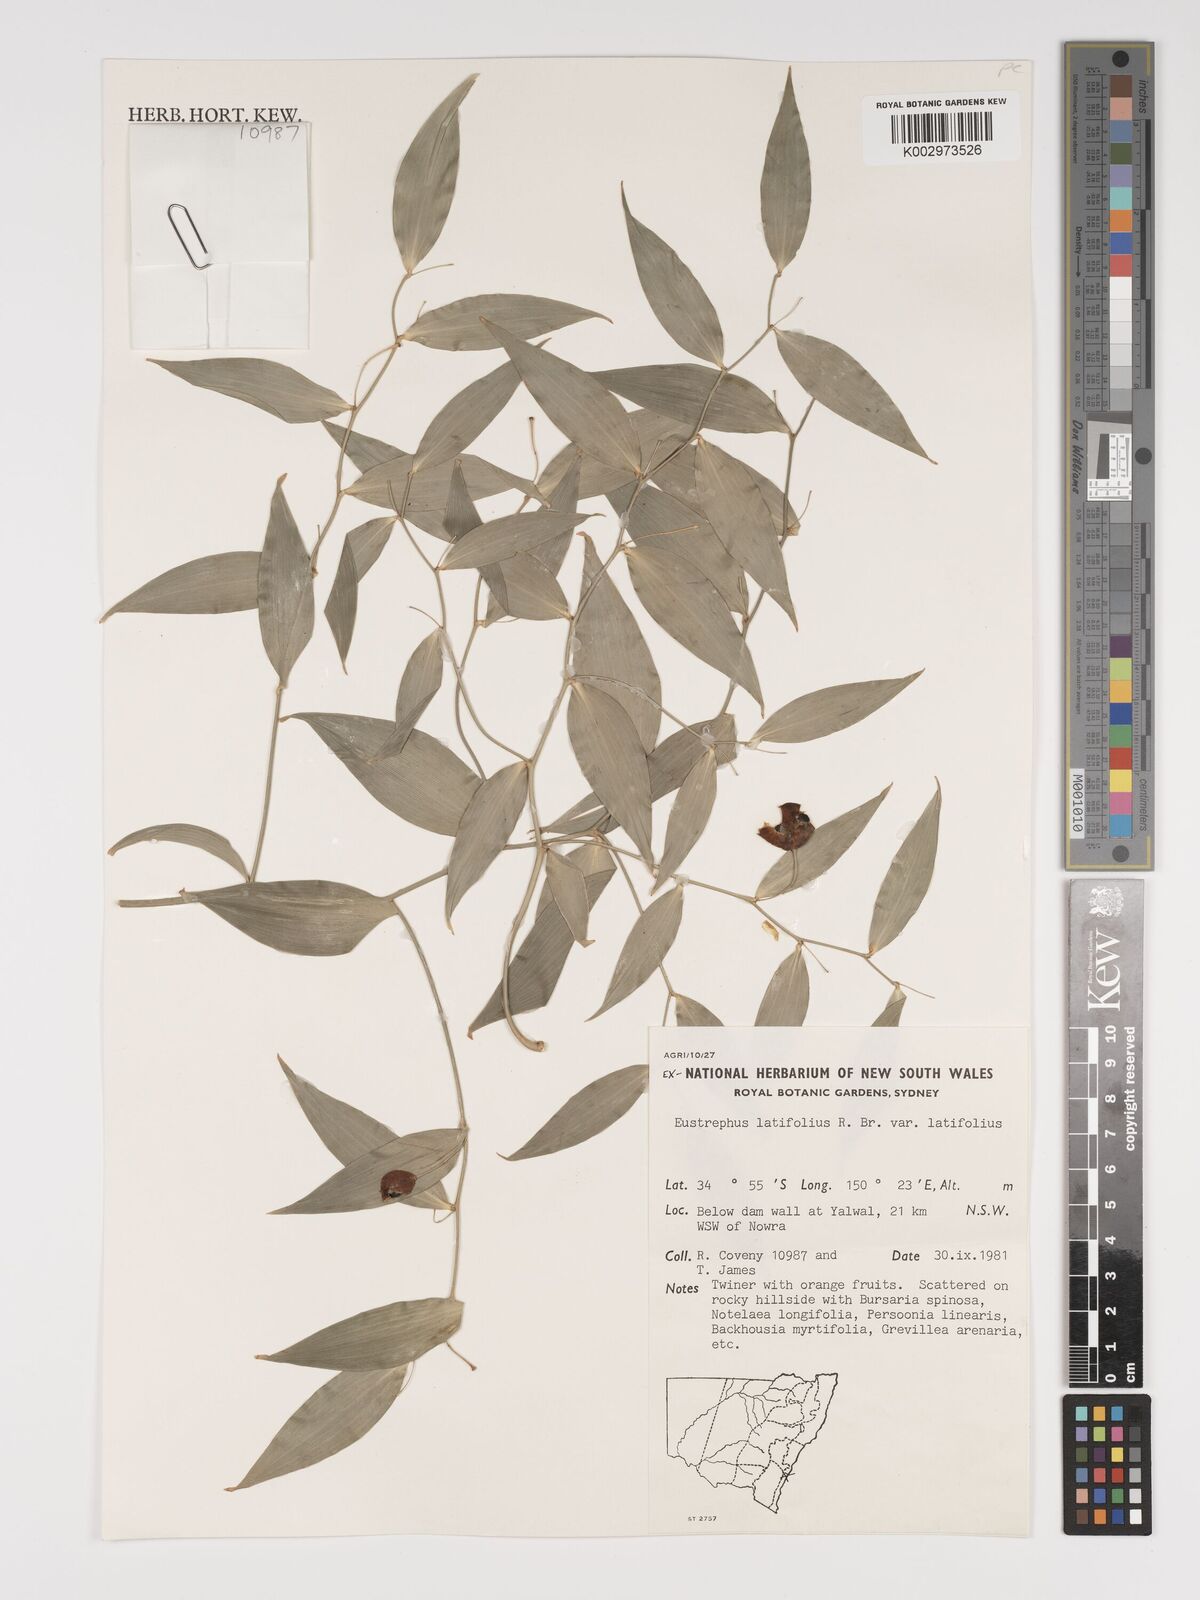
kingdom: Plantae
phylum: Tracheophyta
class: Liliopsida
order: Asparagales
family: Asparagaceae
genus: Eustrephus
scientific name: Eustrephus latifolius
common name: Orangevine
